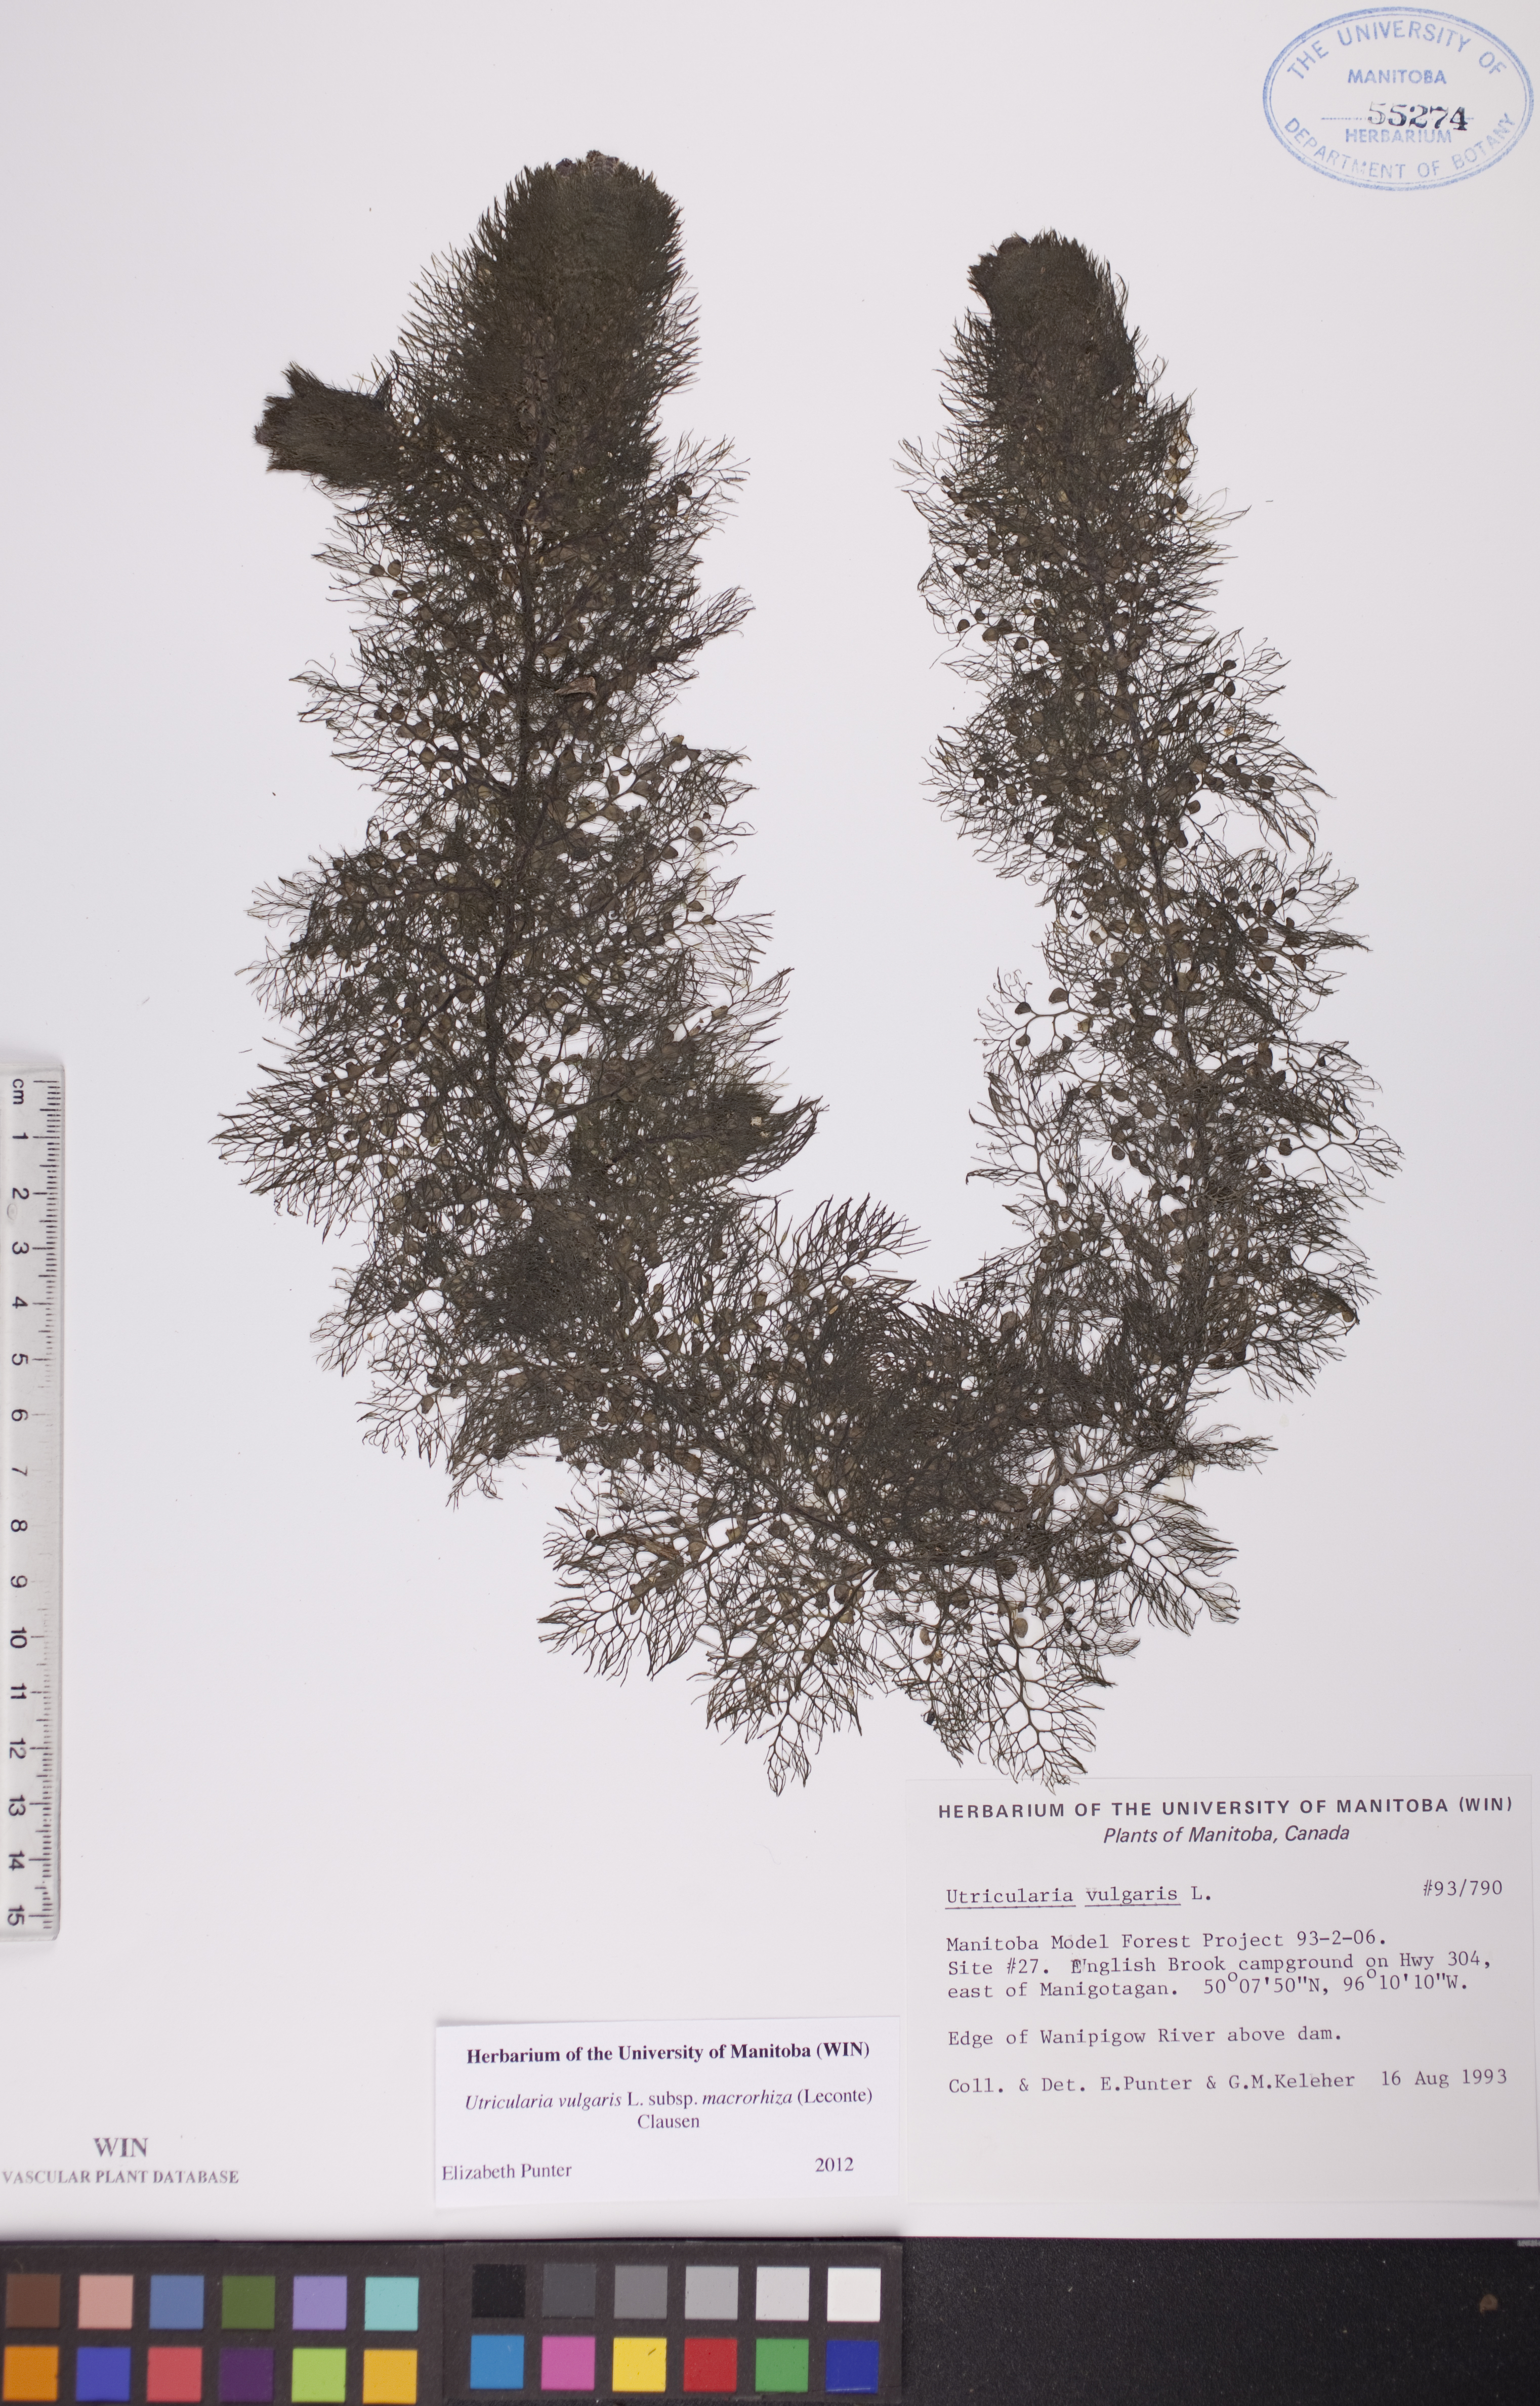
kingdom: Plantae
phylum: Tracheophyta
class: Magnoliopsida
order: Lamiales
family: Lentibulariaceae
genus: Utricularia
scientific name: Utricularia macrorhiza
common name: Common bladderwort
